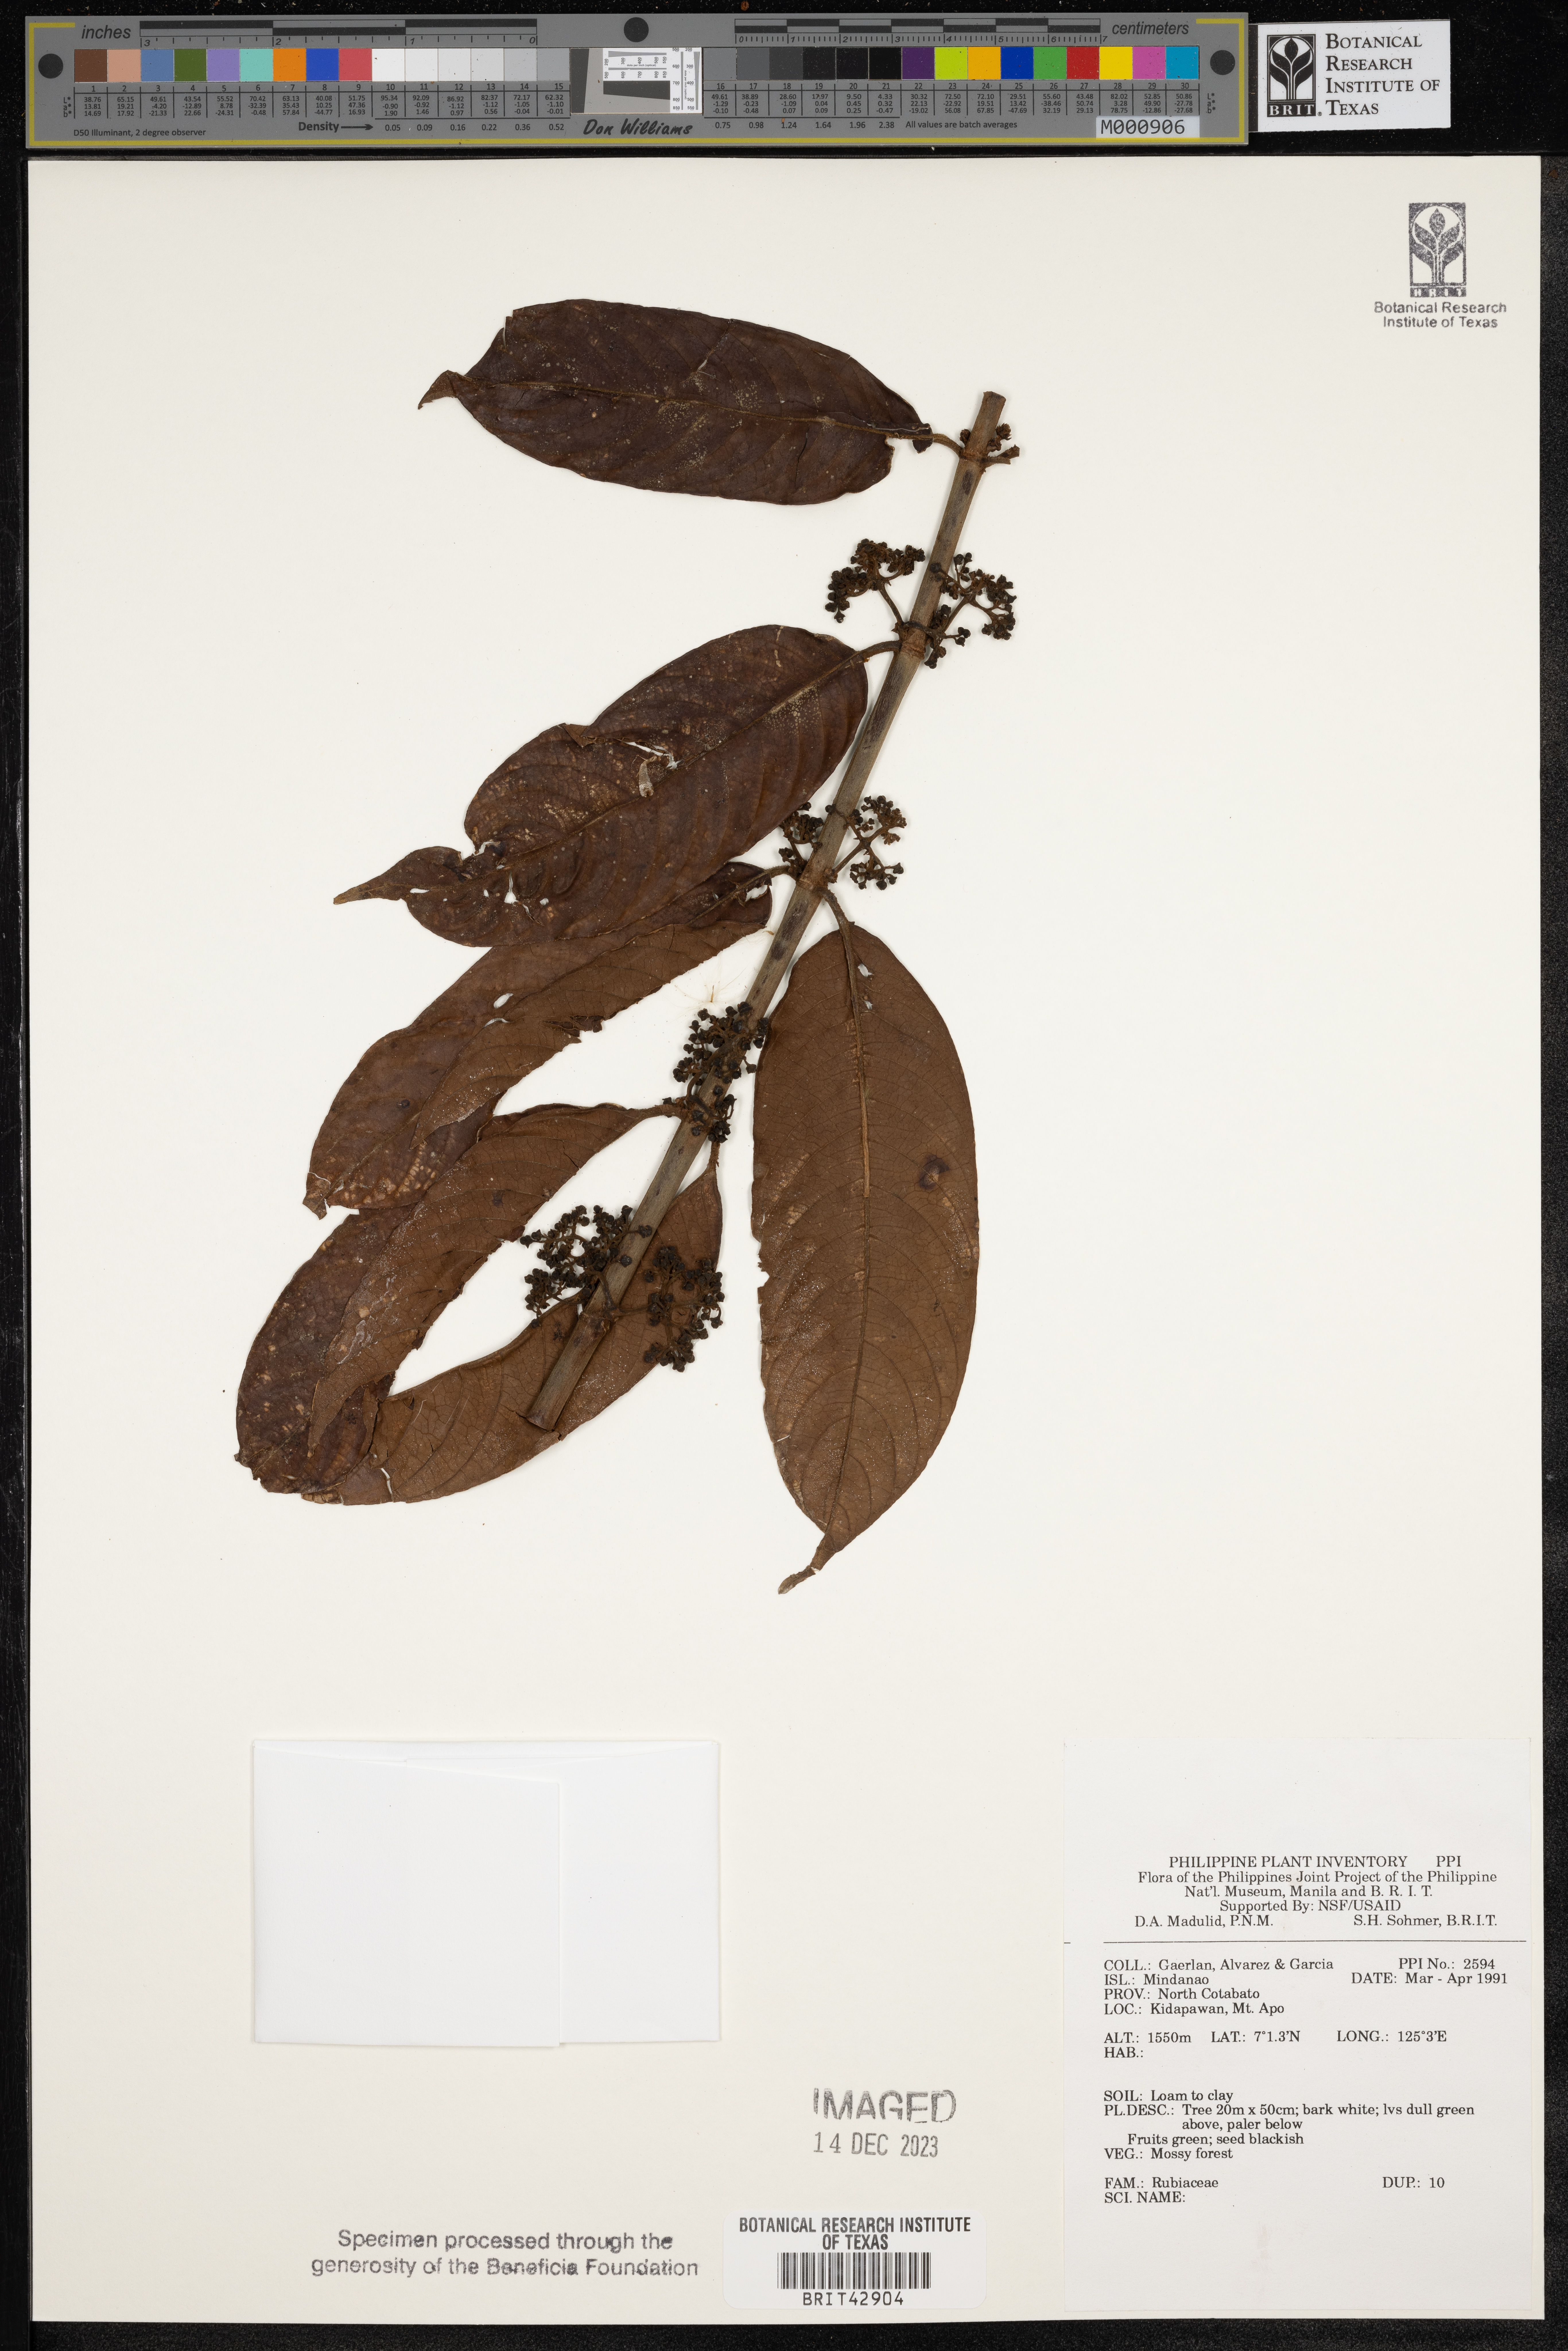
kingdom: Plantae
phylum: Tracheophyta
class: Magnoliopsida
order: Gentianales
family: Rubiaceae
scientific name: Rubiaceae
